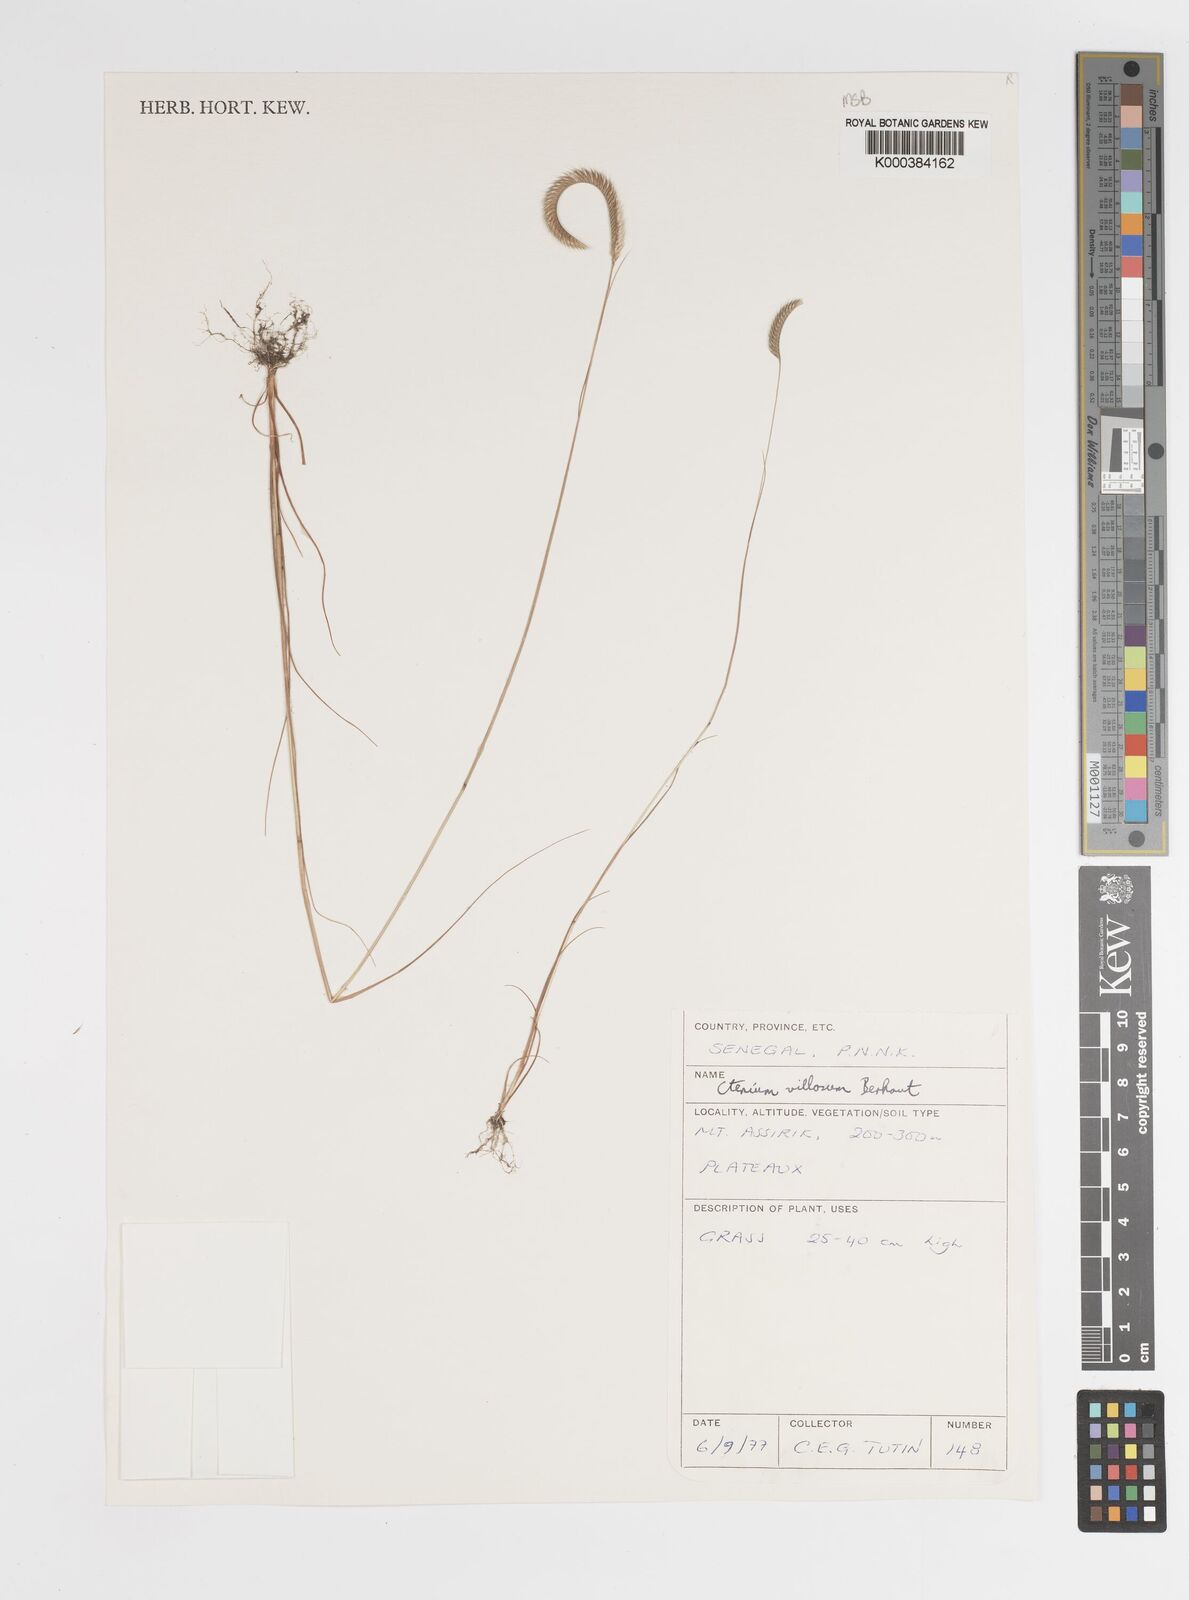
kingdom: Plantae
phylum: Tracheophyta
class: Liliopsida
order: Poales
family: Poaceae
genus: Ctenium
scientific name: Ctenium villosum
